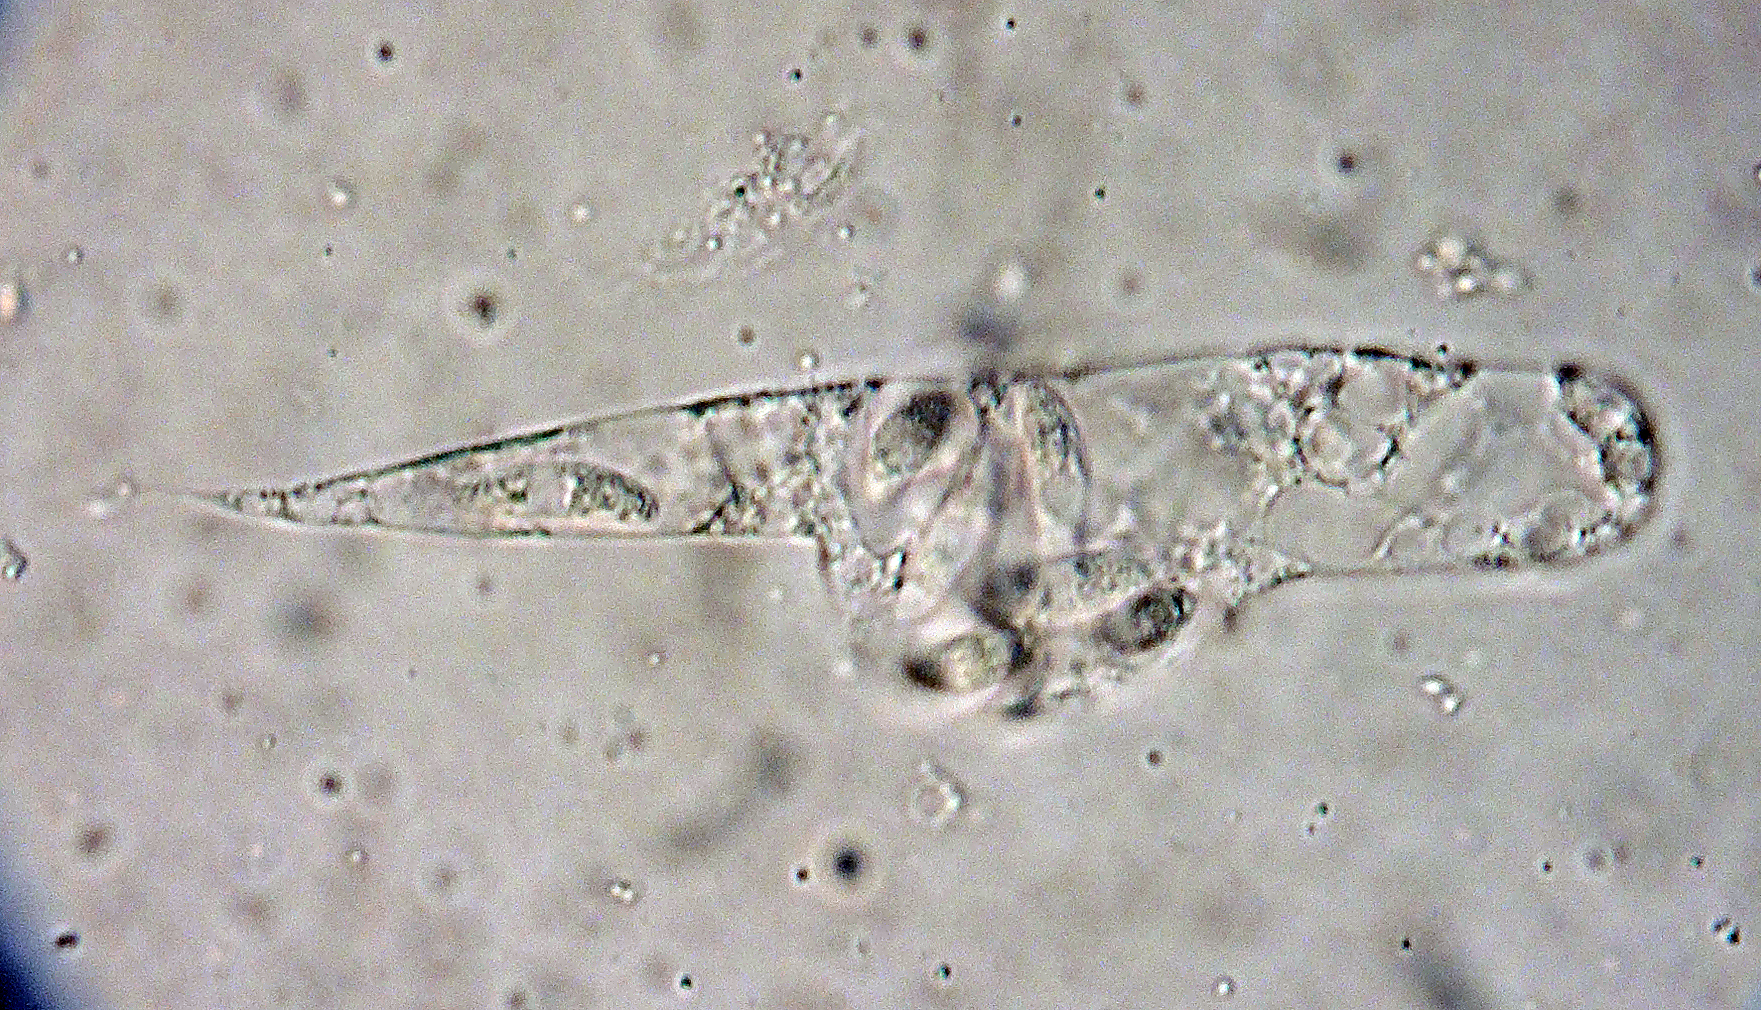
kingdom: Fungi
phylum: Ascomycota
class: Sordariomycetes
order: Diaporthales
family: Diaporthaceae
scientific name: Diaporthaceae
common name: kulknippefamilien
